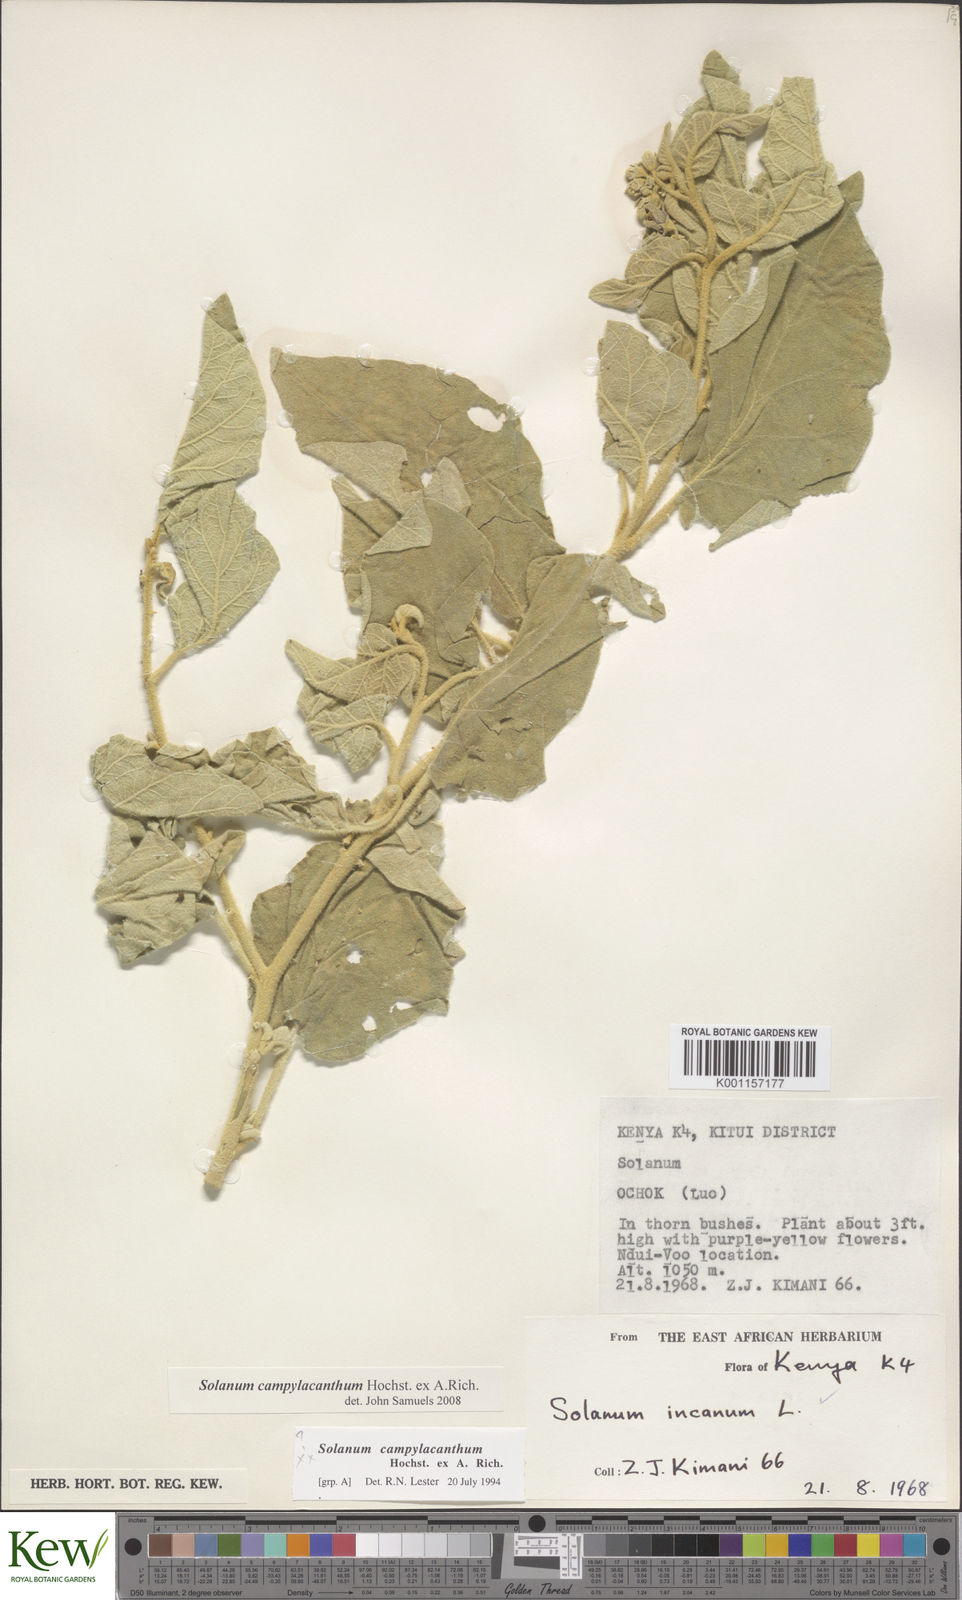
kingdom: Plantae
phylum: Tracheophyta
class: Magnoliopsida
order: Solanales
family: Solanaceae
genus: Solanum
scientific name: Solanum campylacanthum
